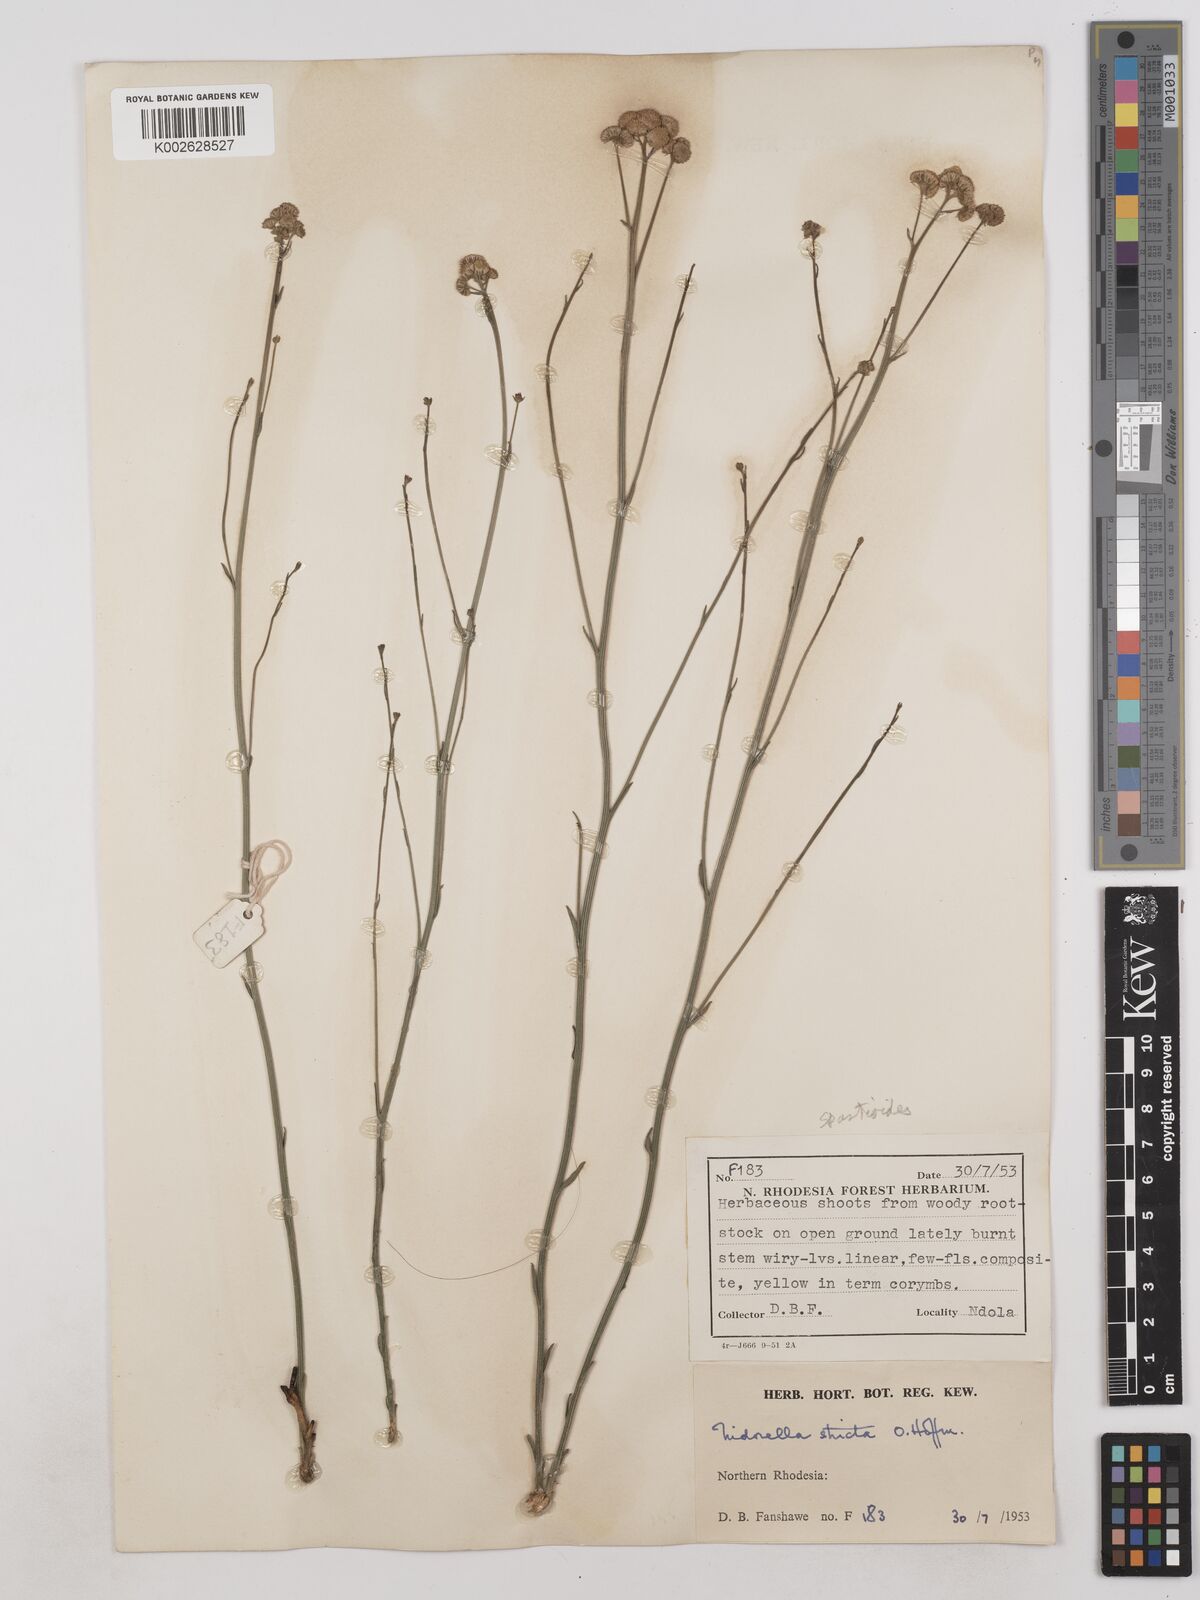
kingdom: Plantae
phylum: Tracheophyta
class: Magnoliopsida
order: Asterales
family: Asteraceae
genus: Nidorella
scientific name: Nidorella spartioides
